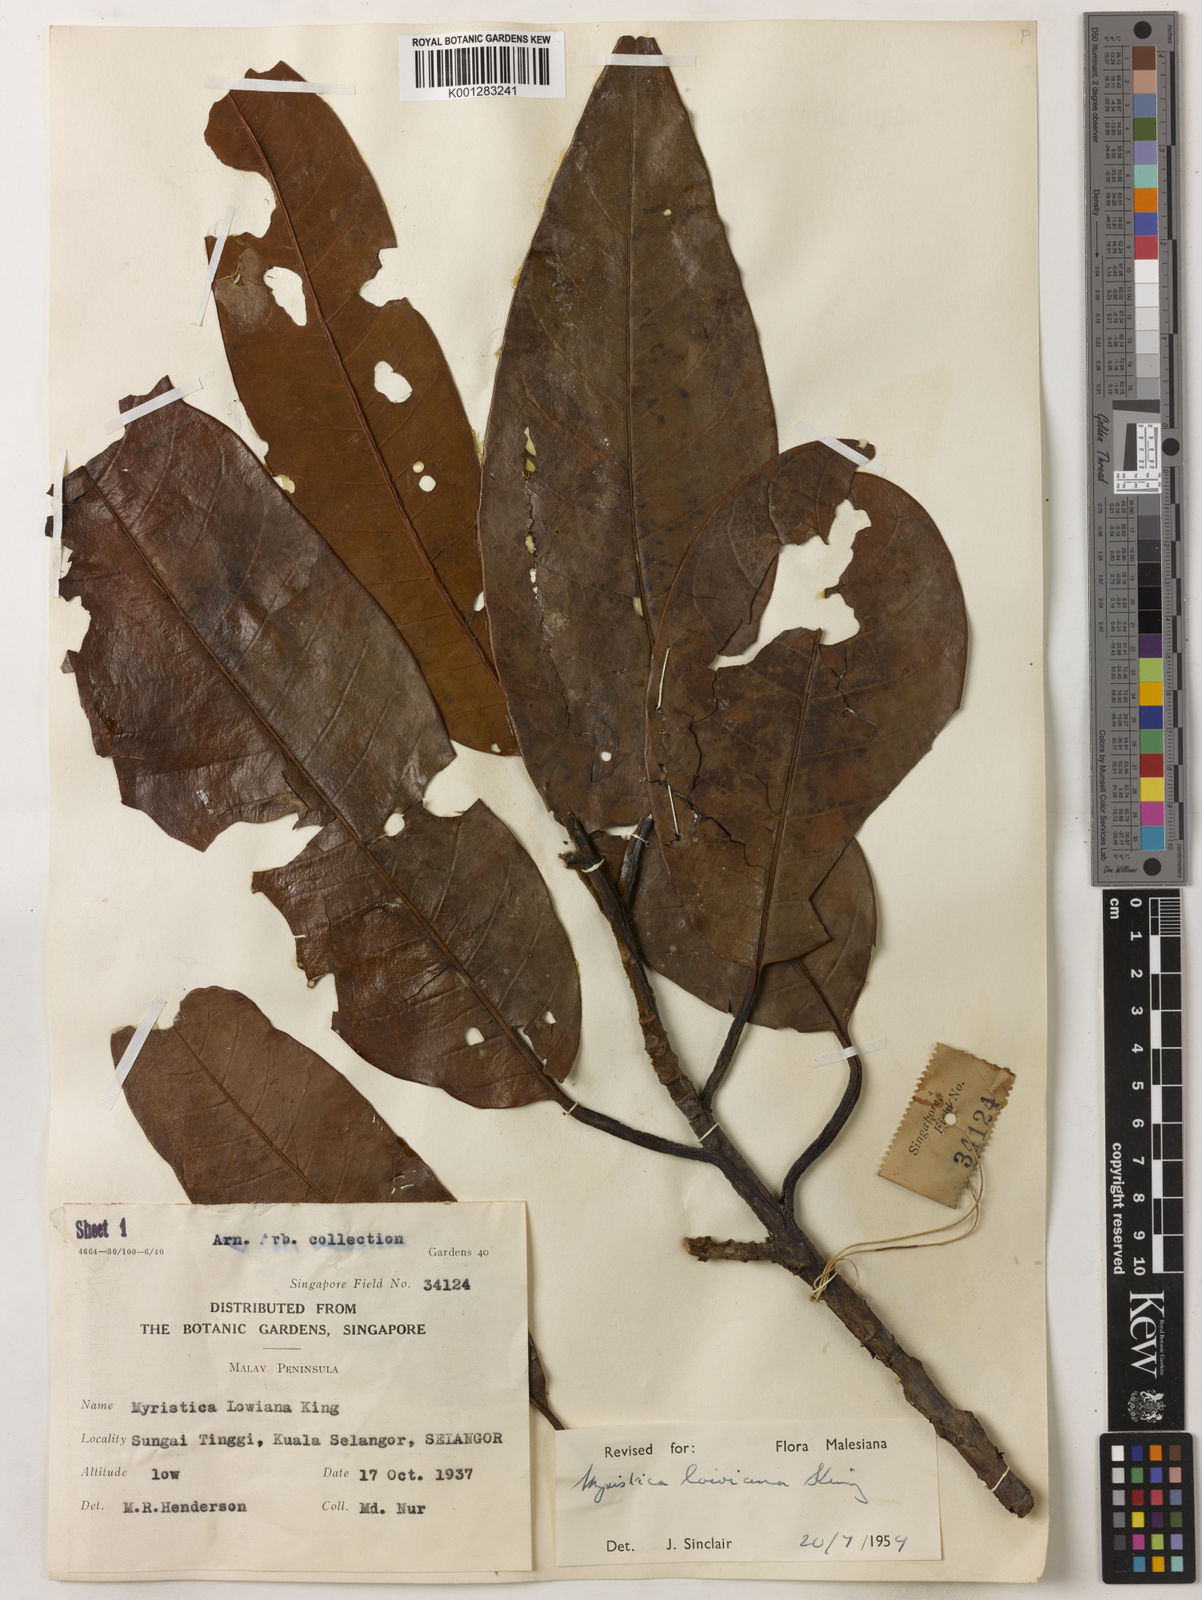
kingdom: Plantae
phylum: Tracheophyta
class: Magnoliopsida
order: Magnoliales
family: Myristicaceae
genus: Myristica
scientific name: Myristica lowiana
